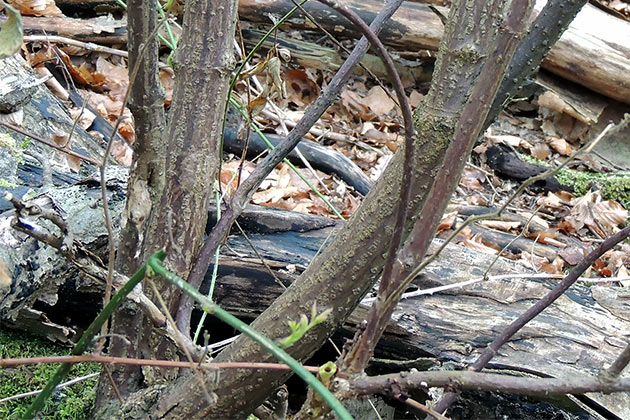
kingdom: Fungi
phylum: Basidiomycota
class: Agaricomycetes
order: Agaricales
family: Pleurotaceae
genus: Hohenbuehelia
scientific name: Hohenbuehelia unguicularis
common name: hovformet filthat
